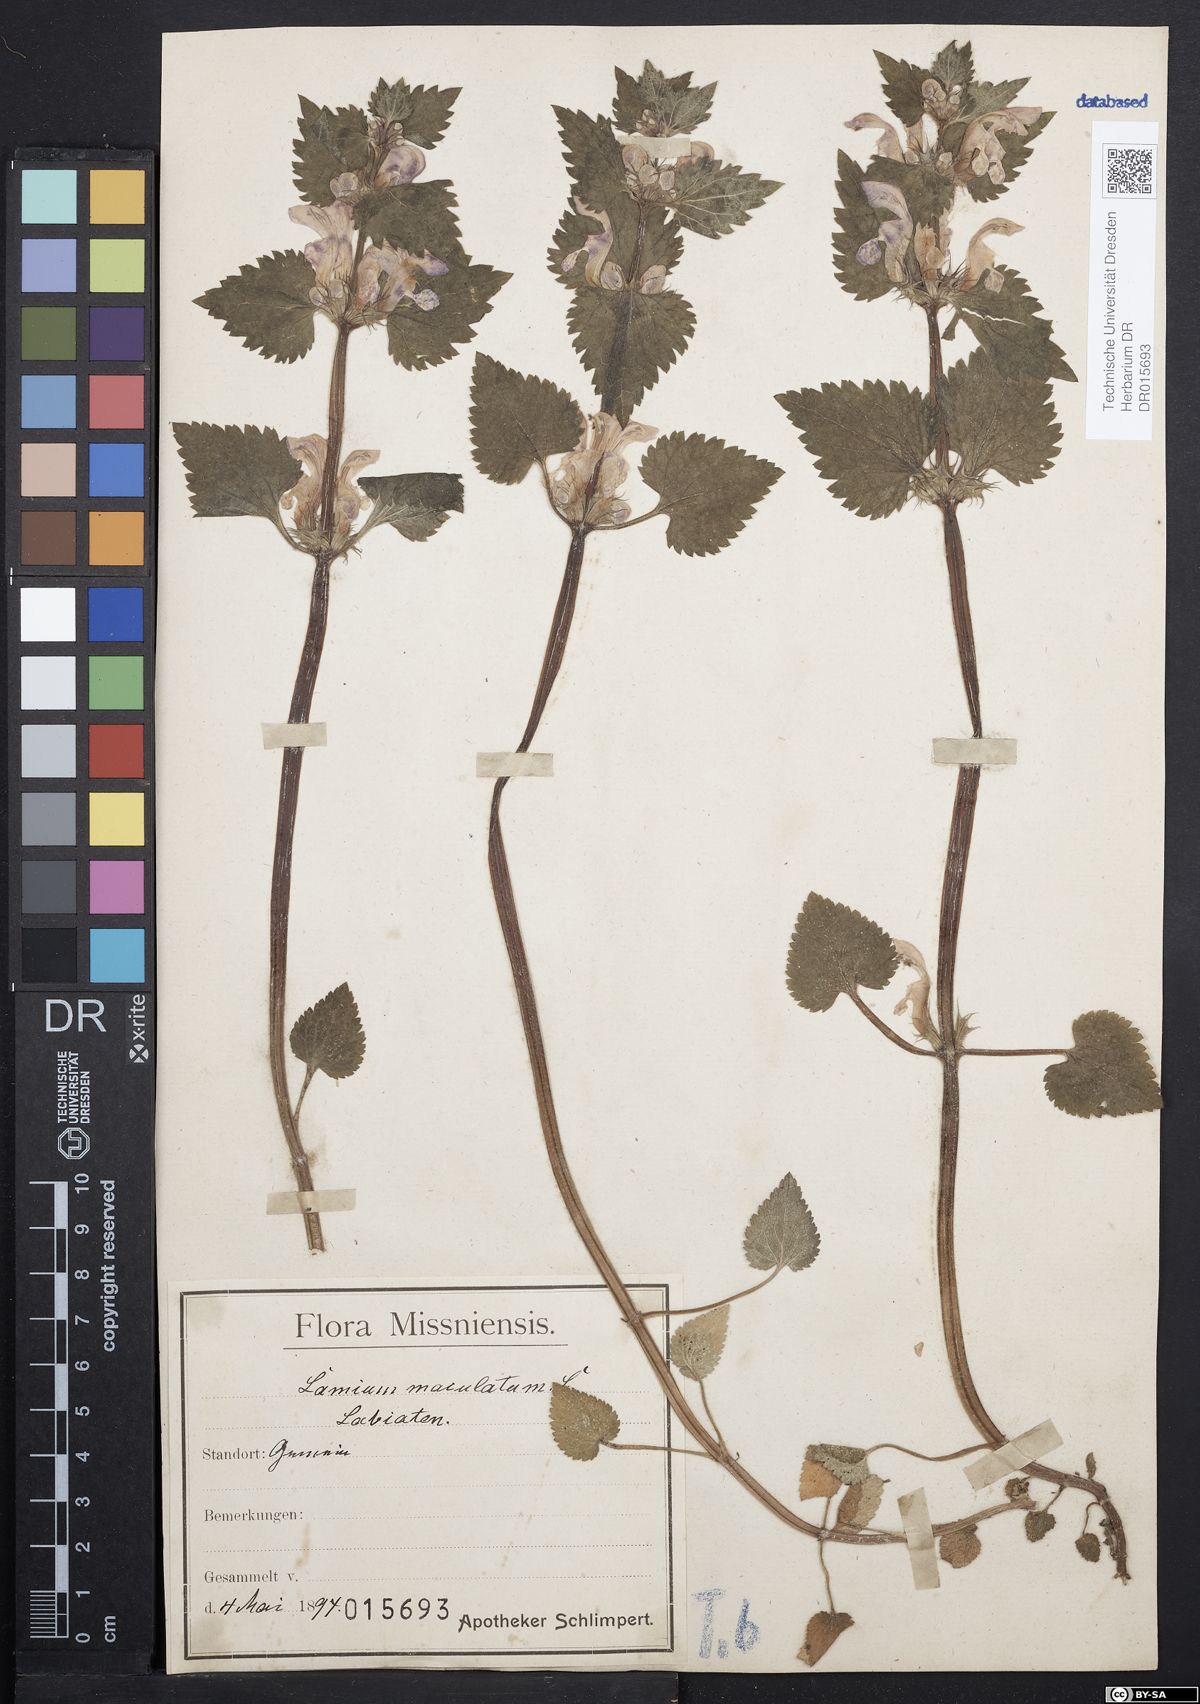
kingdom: Plantae
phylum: Tracheophyta
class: Magnoliopsida
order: Lamiales
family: Lamiaceae
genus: Lamium
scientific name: Lamium maculatum
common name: Spotted dead-nettle
